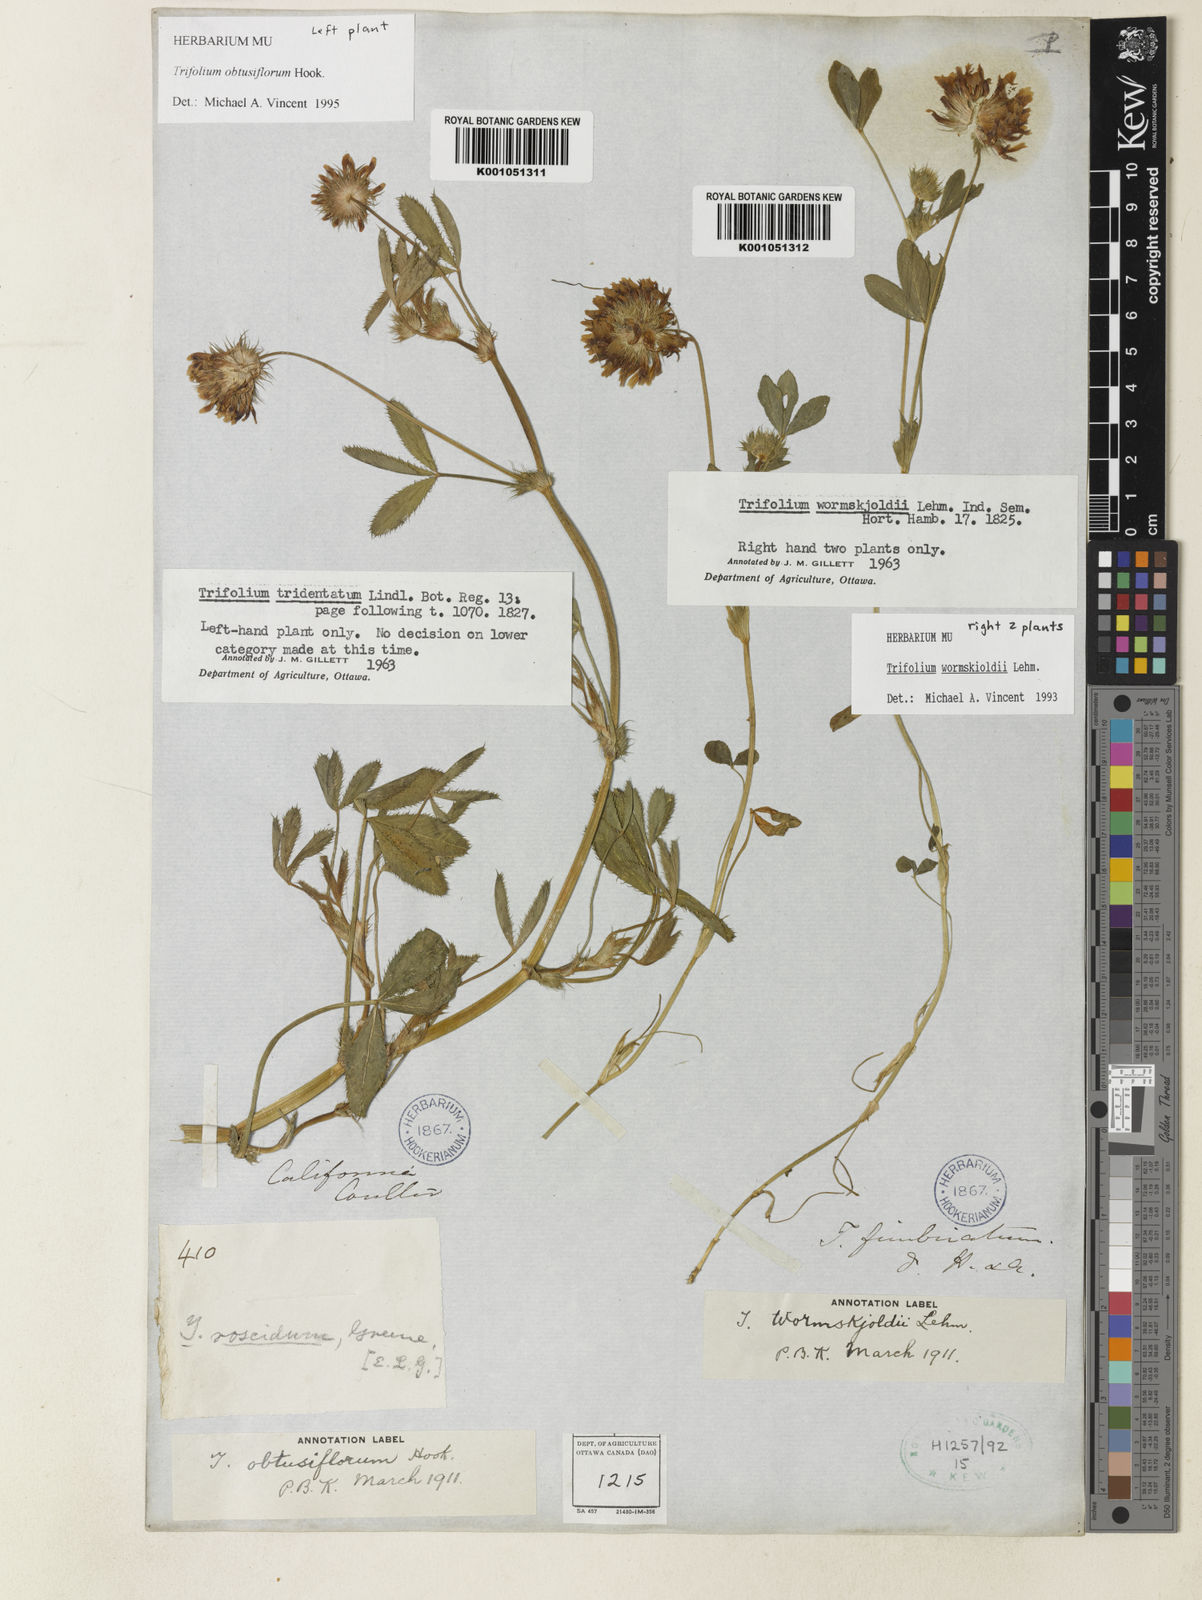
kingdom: Plantae
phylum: Tracheophyta
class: Magnoliopsida
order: Fabales
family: Fabaceae
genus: Trifolium
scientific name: Trifolium willdenovii
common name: Tomcat clover
